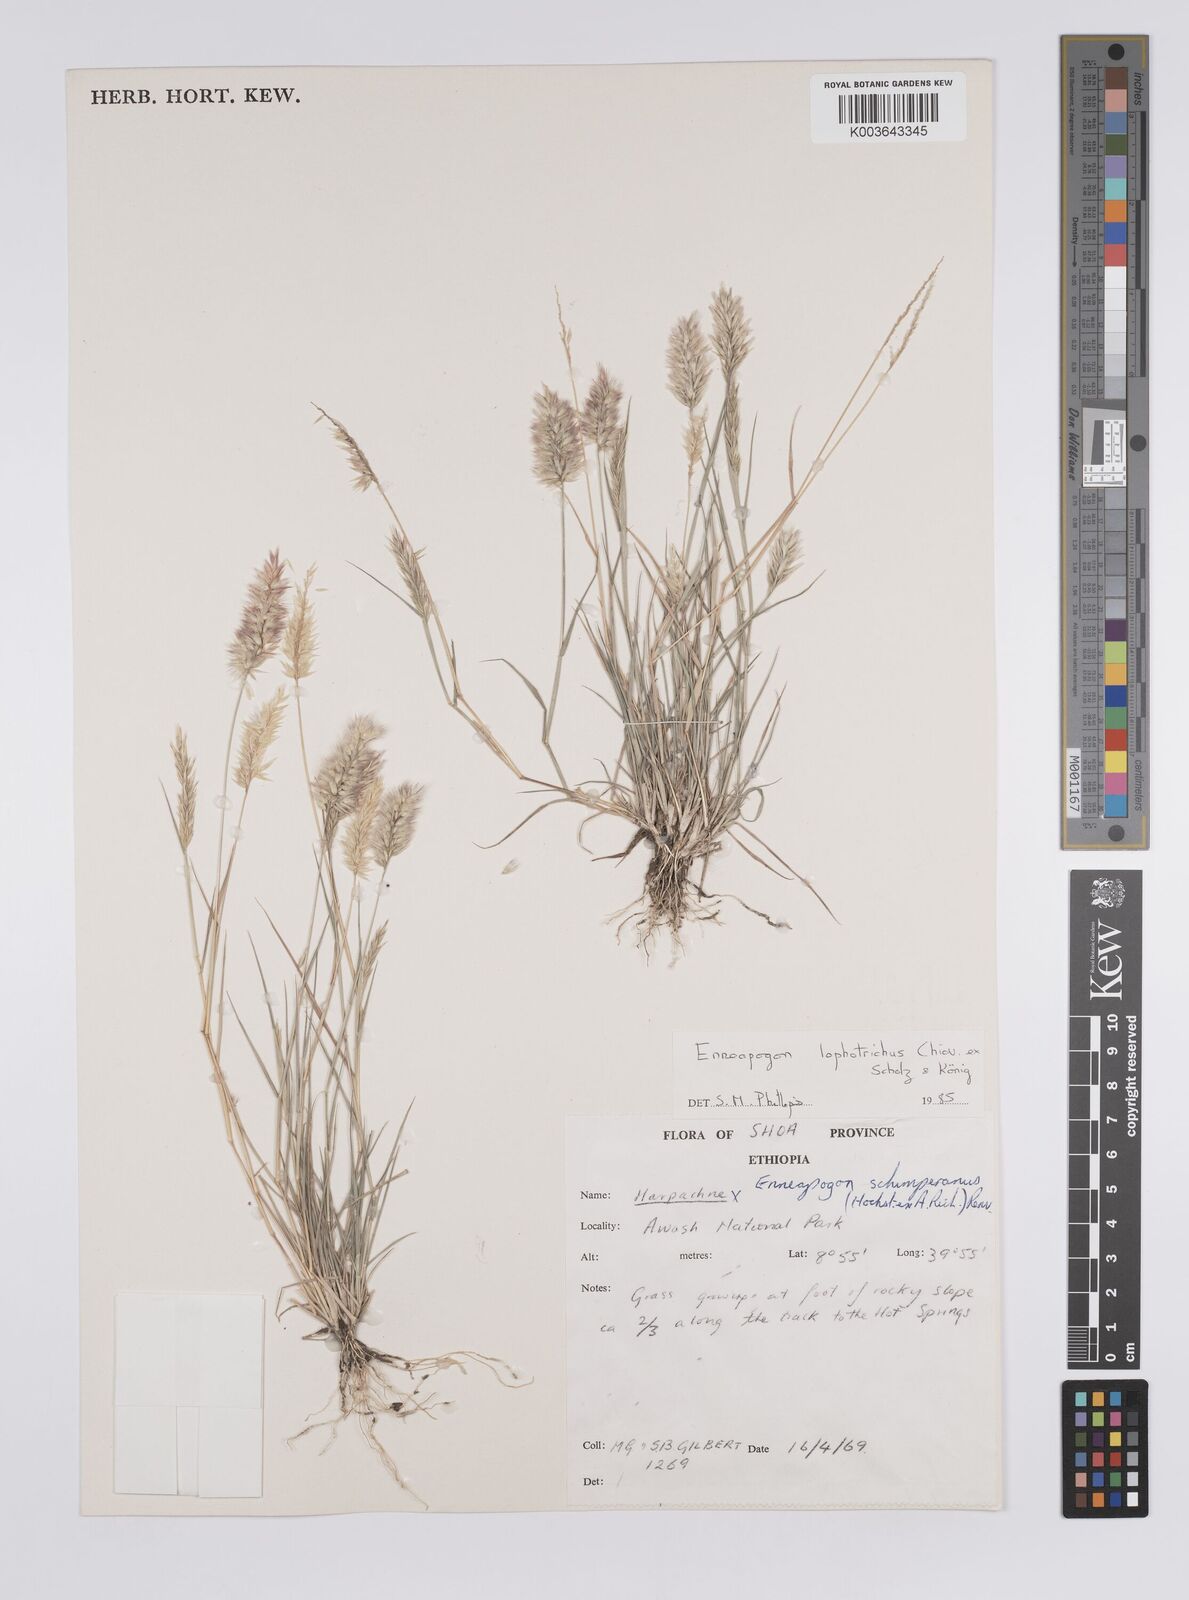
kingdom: Plantae
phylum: Tracheophyta
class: Liliopsida
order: Poales
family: Poaceae
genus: Enneapogon
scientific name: Enneapogon lophotrichus
